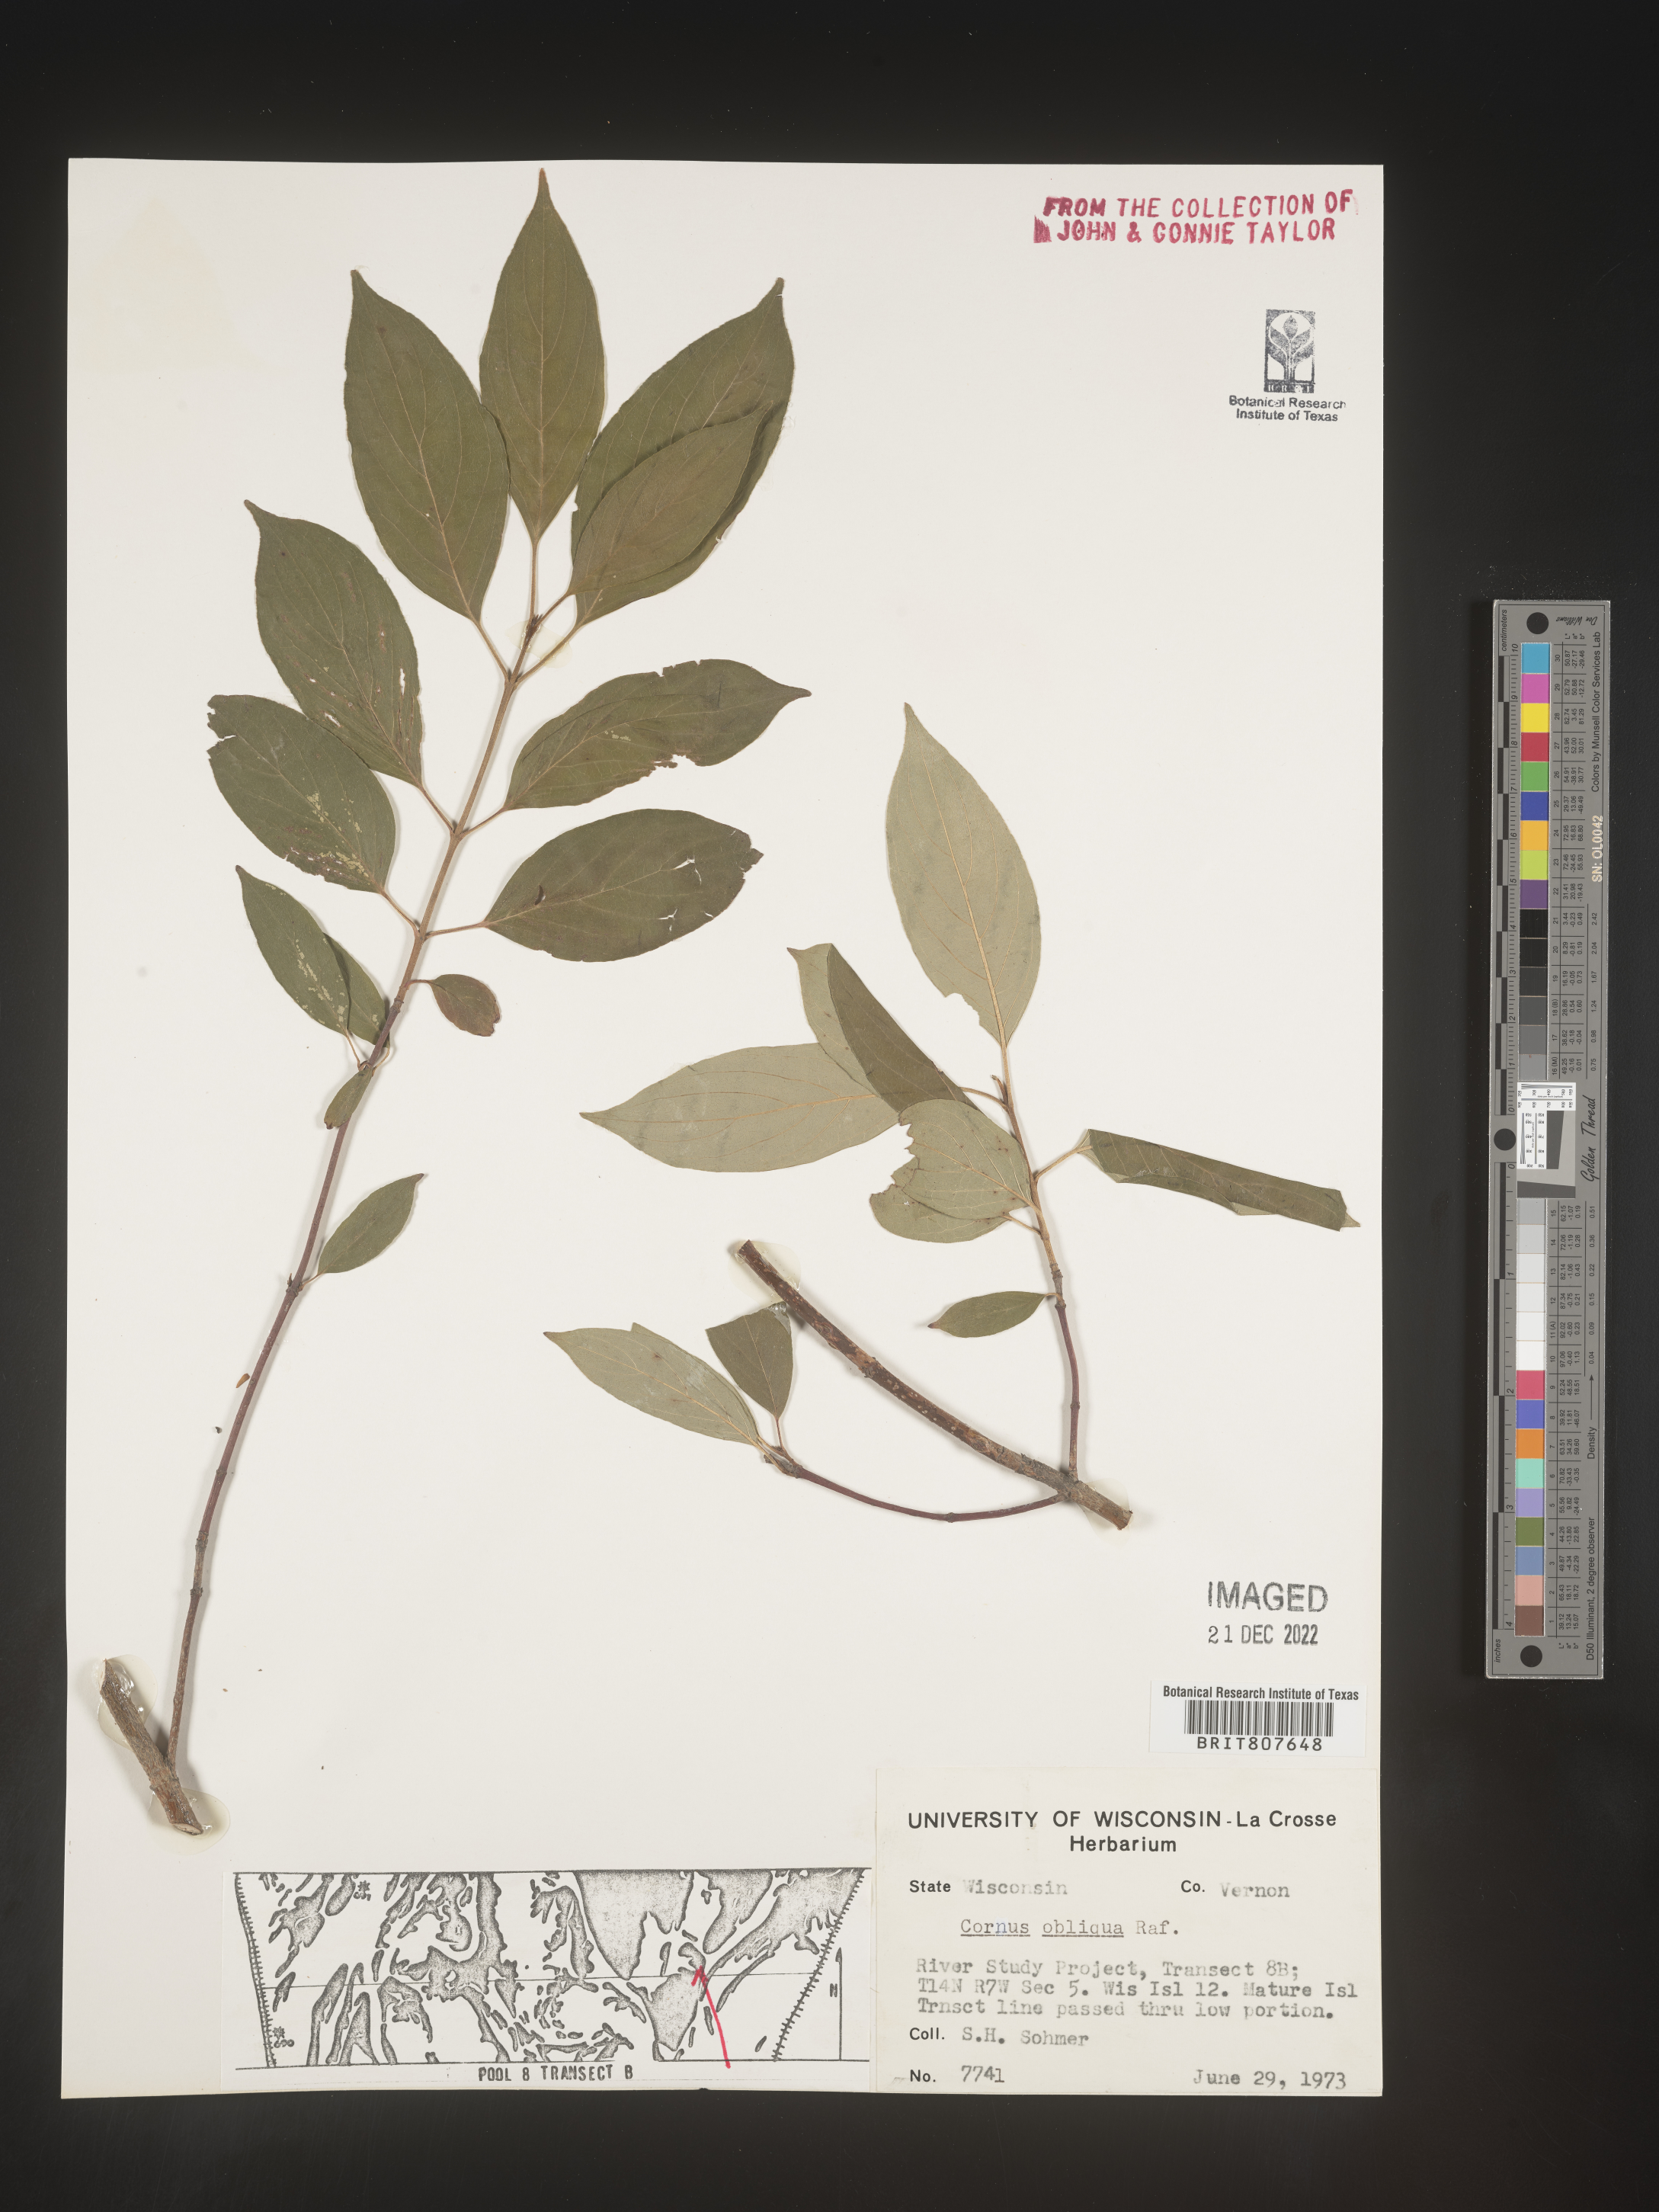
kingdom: Plantae
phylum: Tracheophyta
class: Magnoliopsida
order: Cornales
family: Cornaceae
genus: Cornus
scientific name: Cornus obliqua
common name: Pale dogwood
